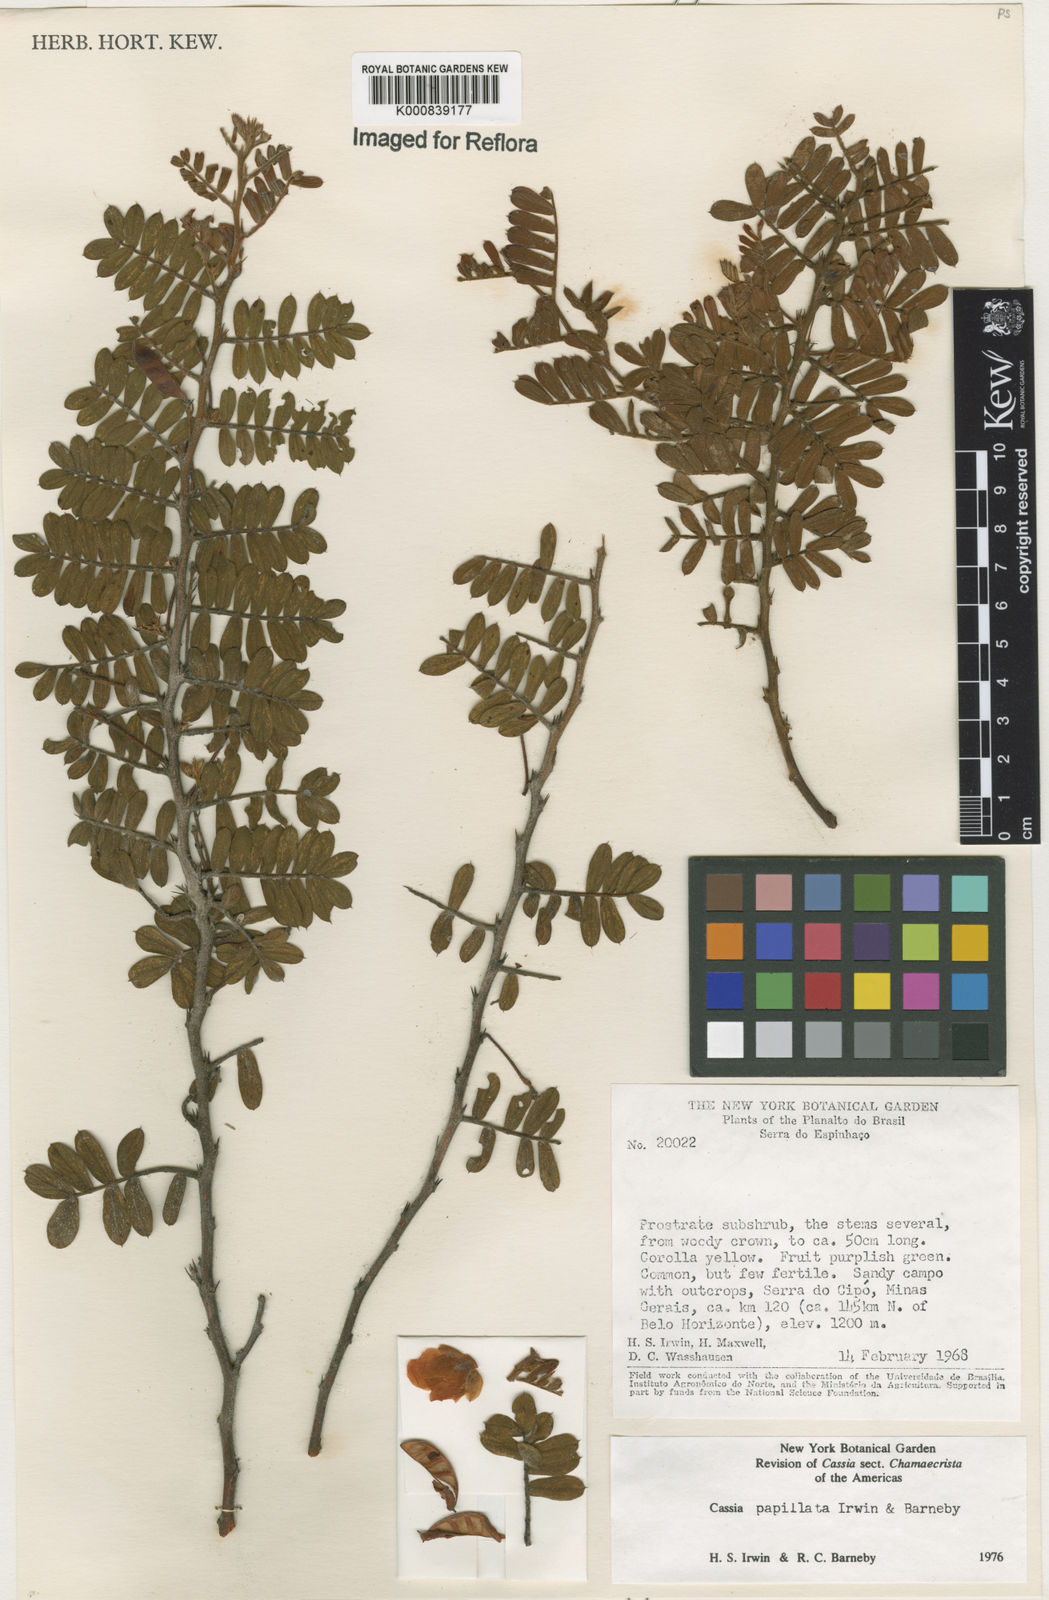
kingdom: Plantae
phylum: Tracheophyta
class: Magnoliopsida
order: Fabales
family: Fabaceae
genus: Chamaecrista
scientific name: Chamaecrista arrojadoana
